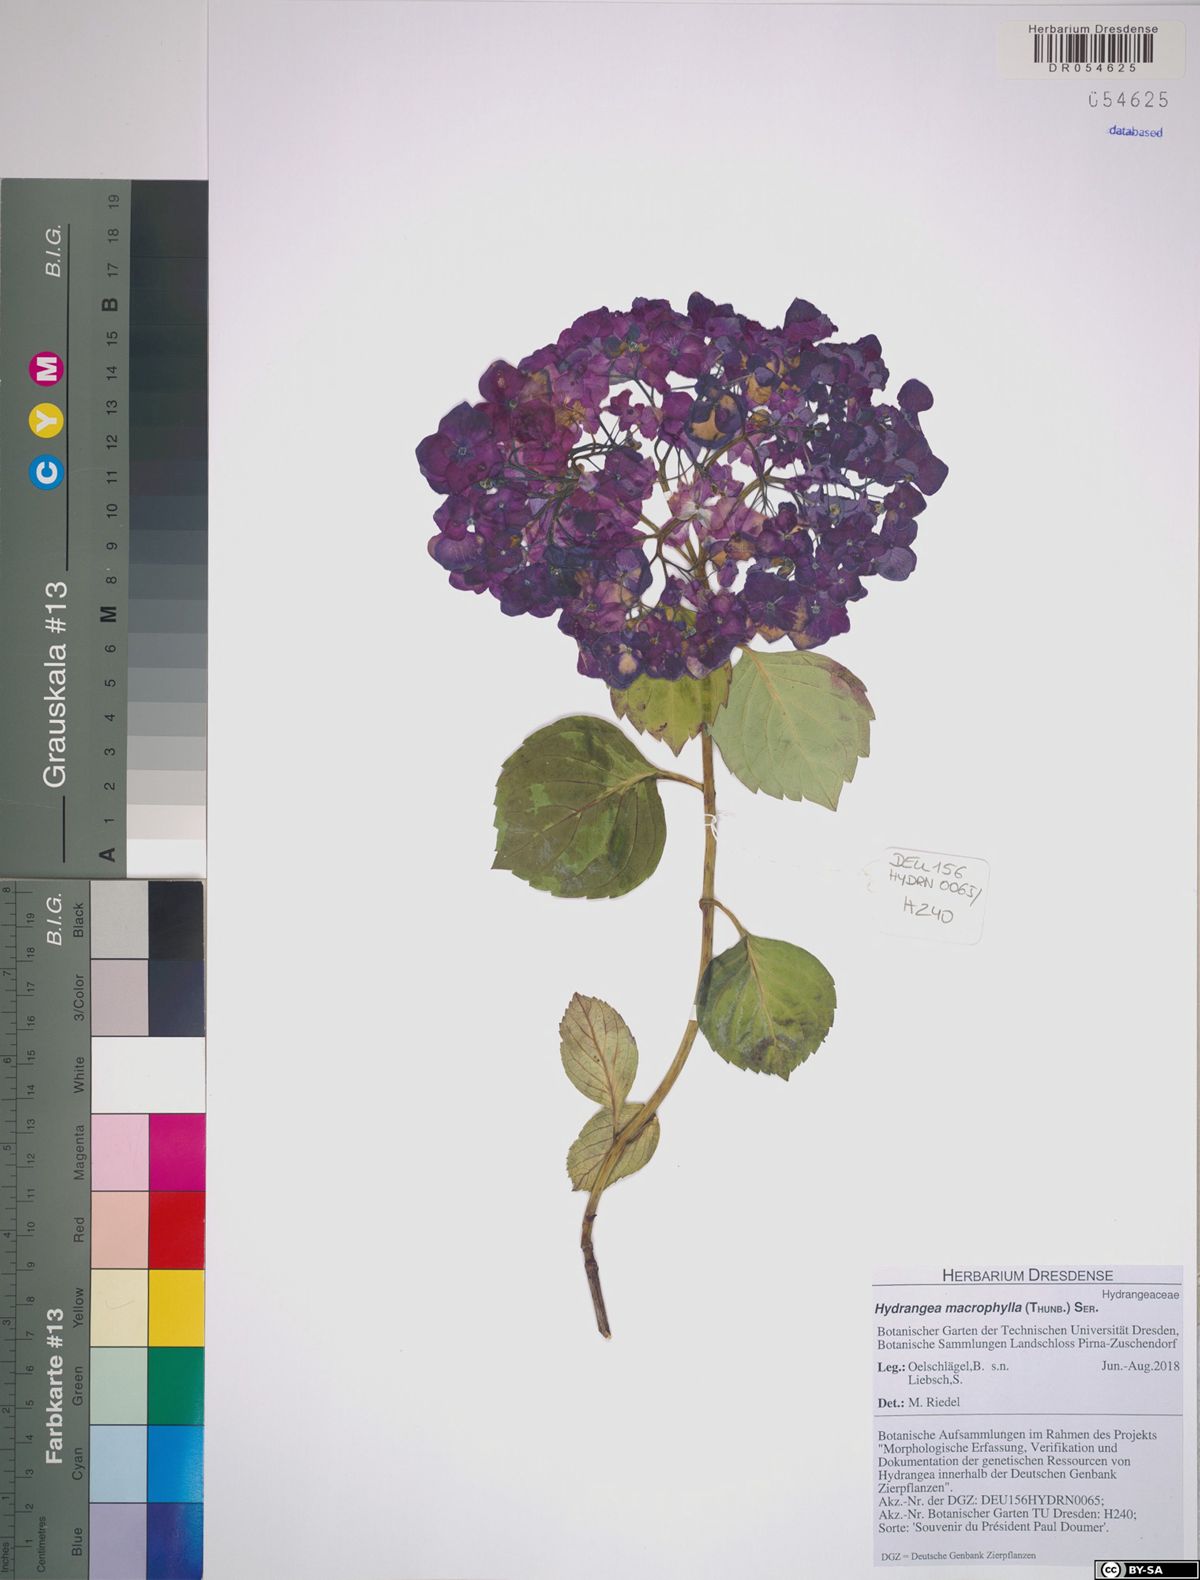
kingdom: Plantae
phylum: Tracheophyta
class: Magnoliopsida
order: Cornales
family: Hydrangeaceae
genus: Hydrangea
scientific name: Hydrangea macrophylla
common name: Hydrangea
